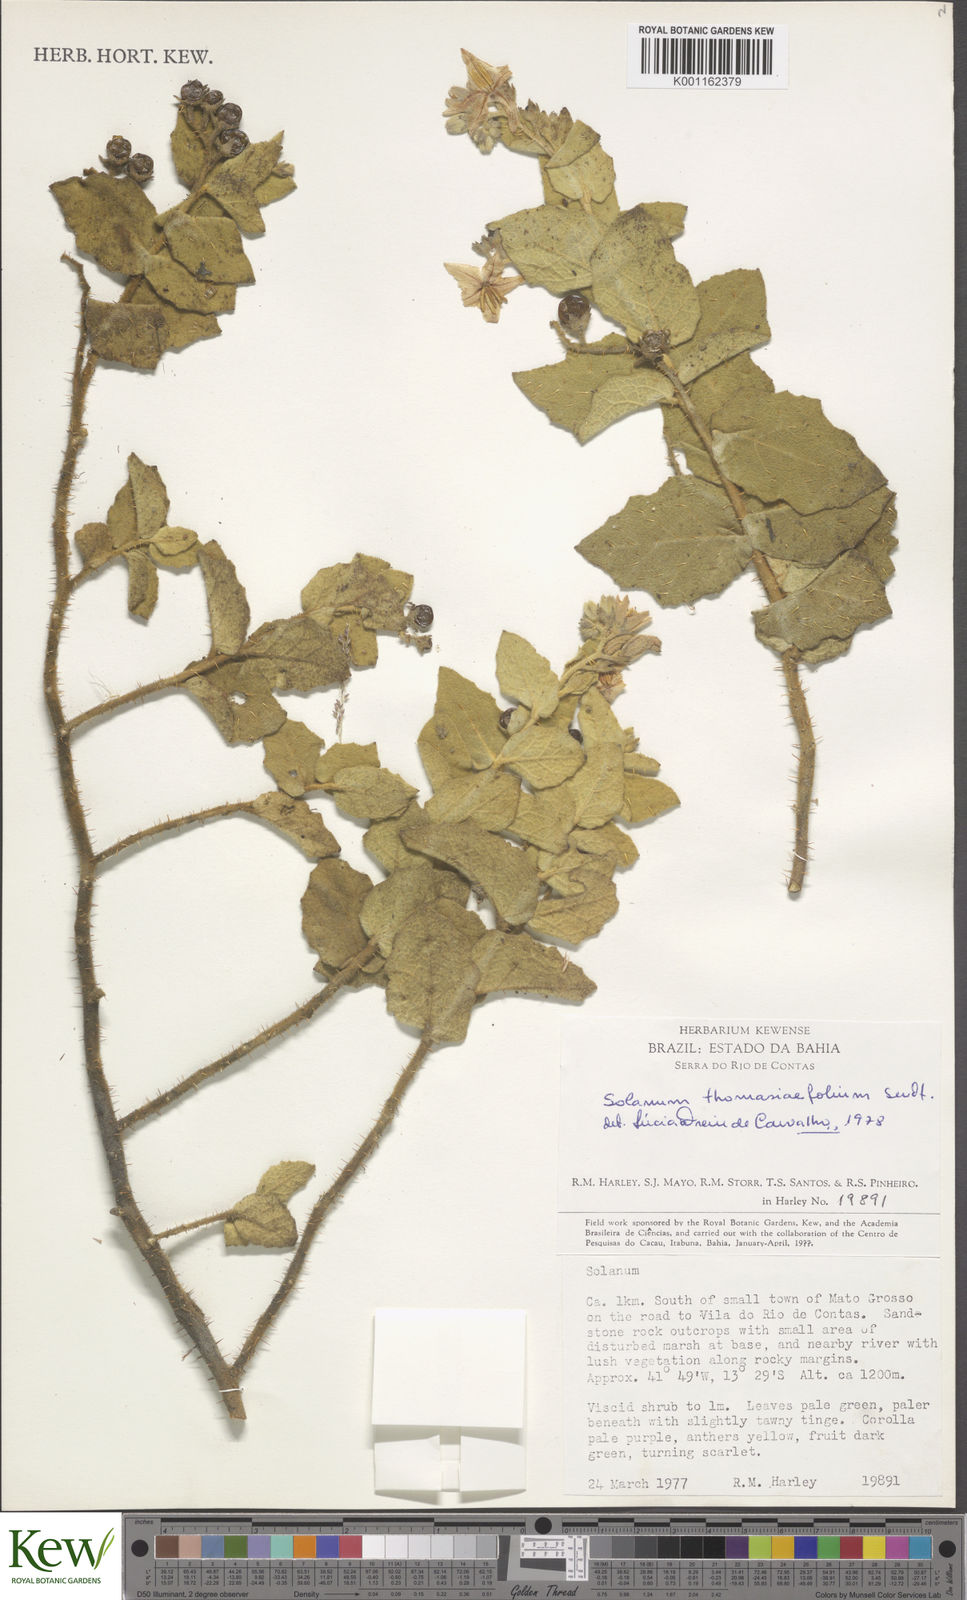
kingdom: Plantae
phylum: Tracheophyta
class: Magnoliopsida
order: Solanales
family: Solanaceae
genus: Solanum
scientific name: Solanum thomasiifolium
